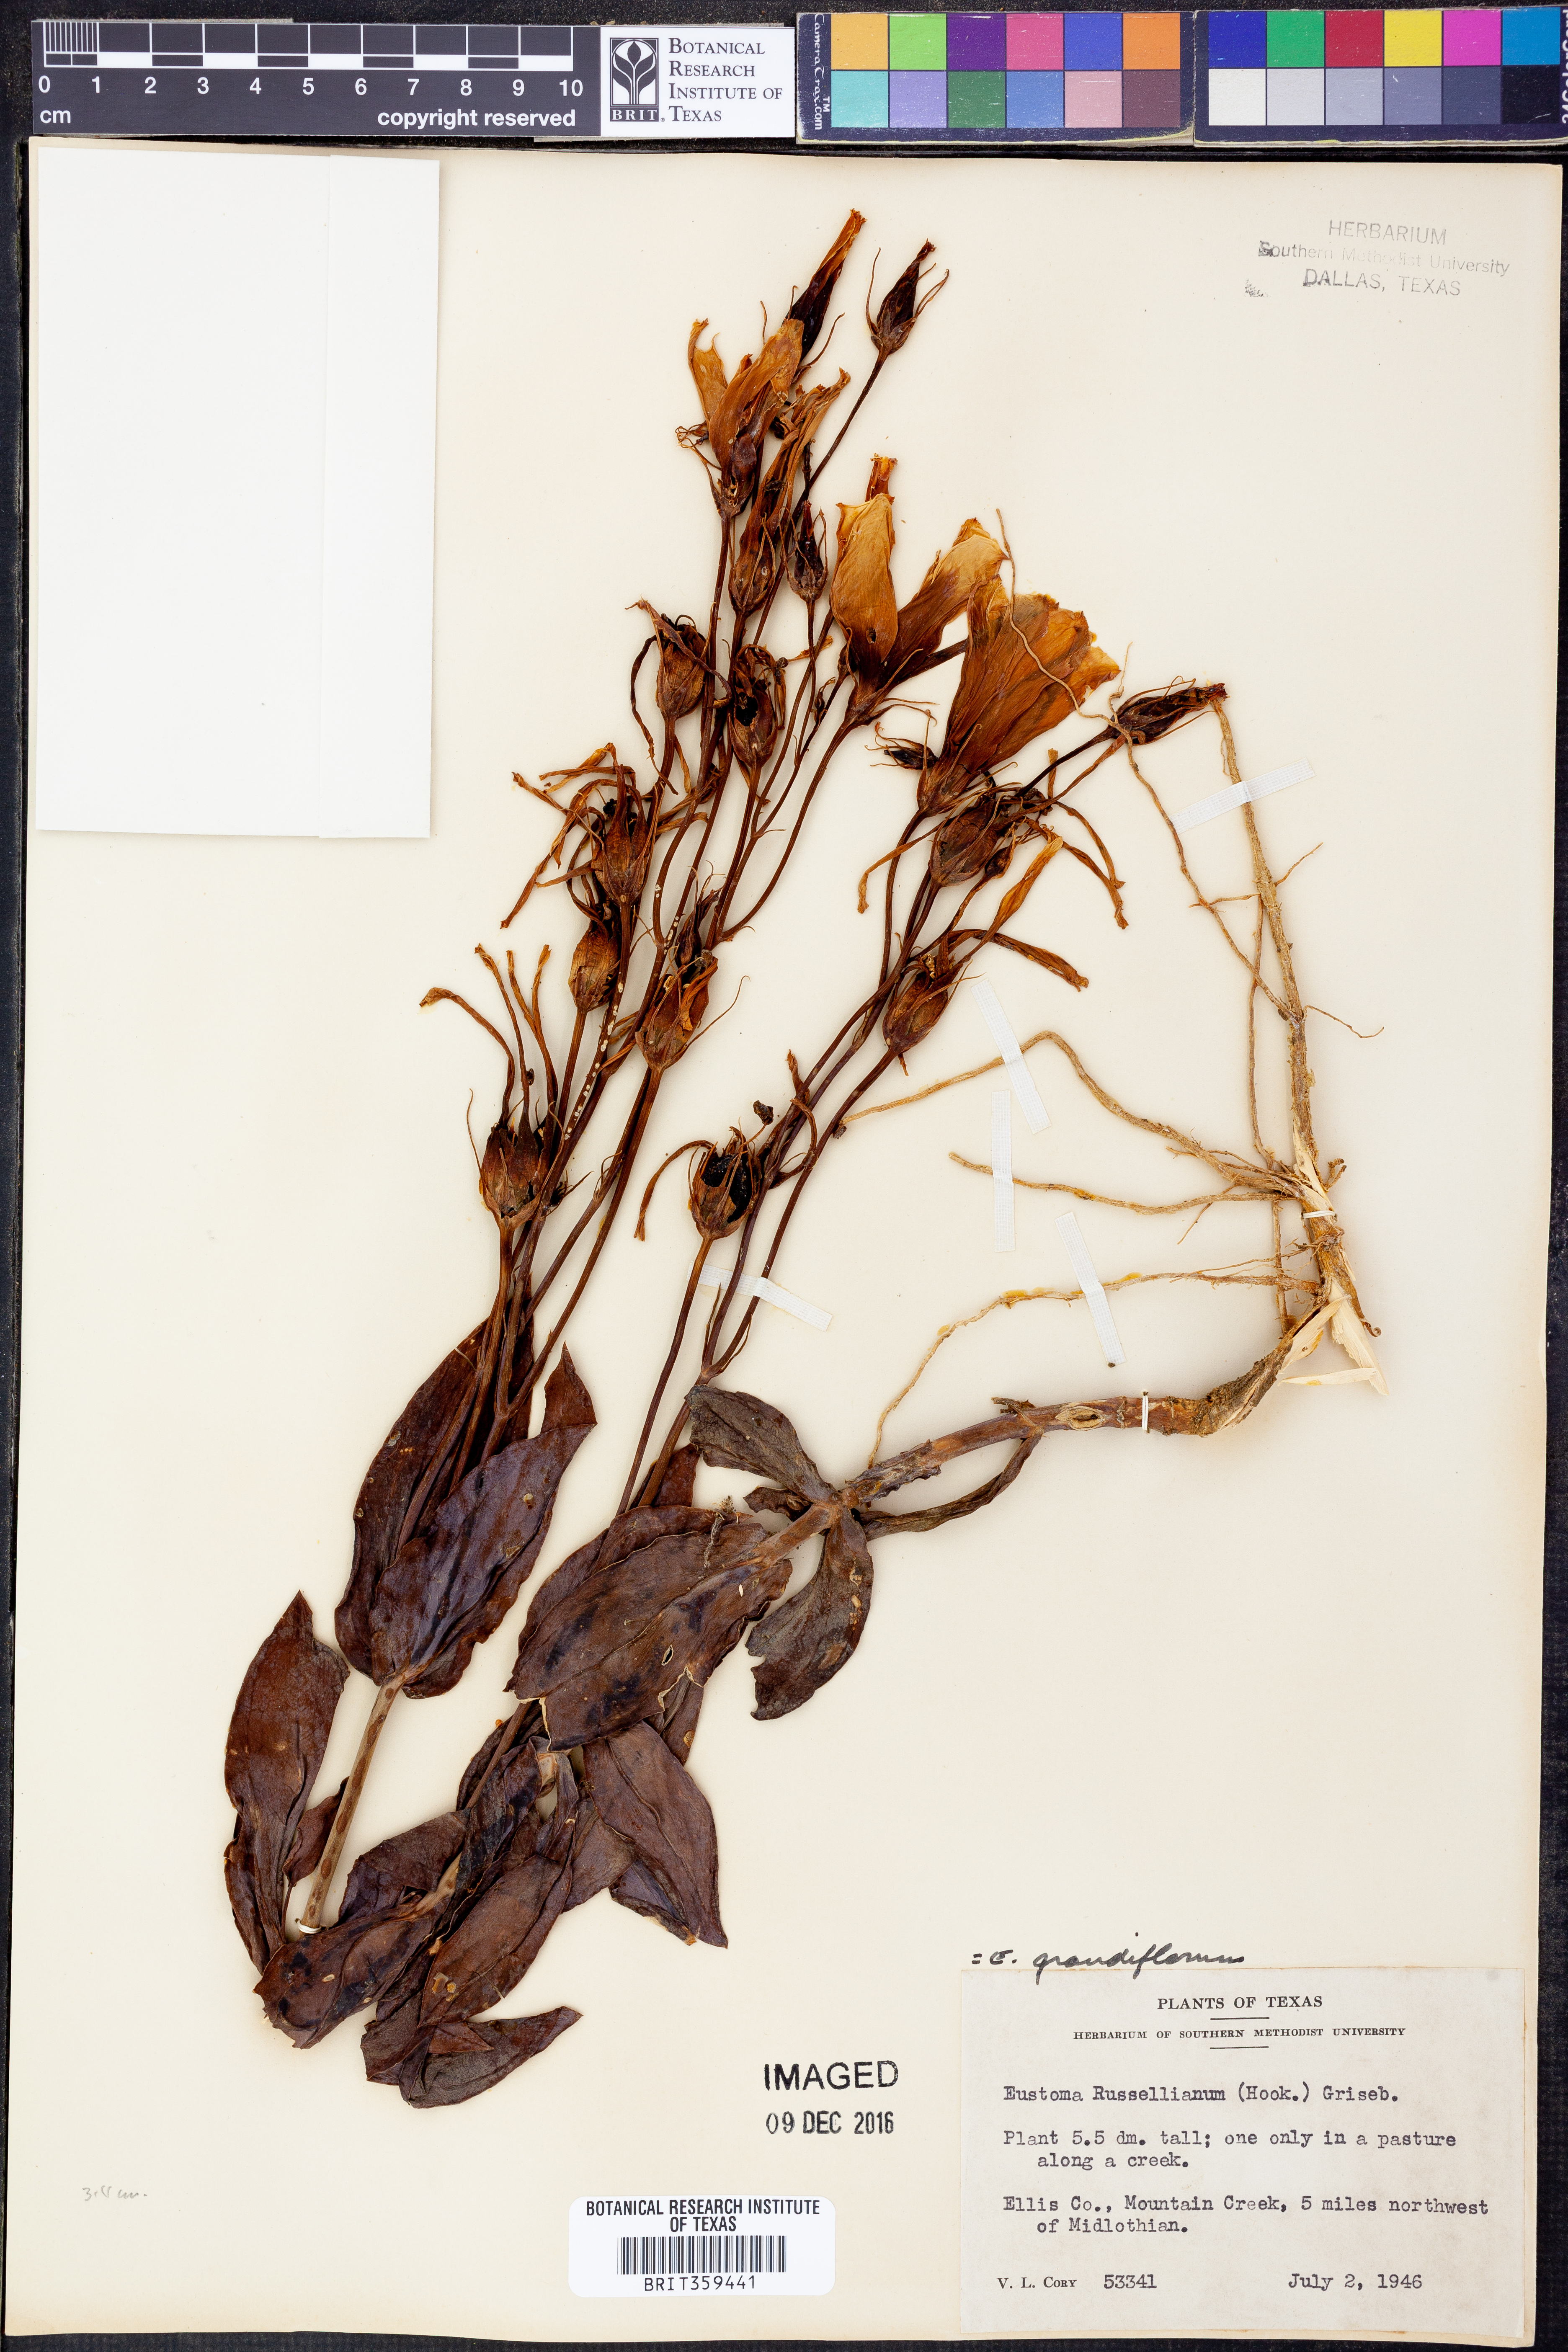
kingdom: Plantae
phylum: Tracheophyta
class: Magnoliopsida
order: Gentianales
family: Gentianaceae
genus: Eustoma
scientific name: Eustoma russellianum
